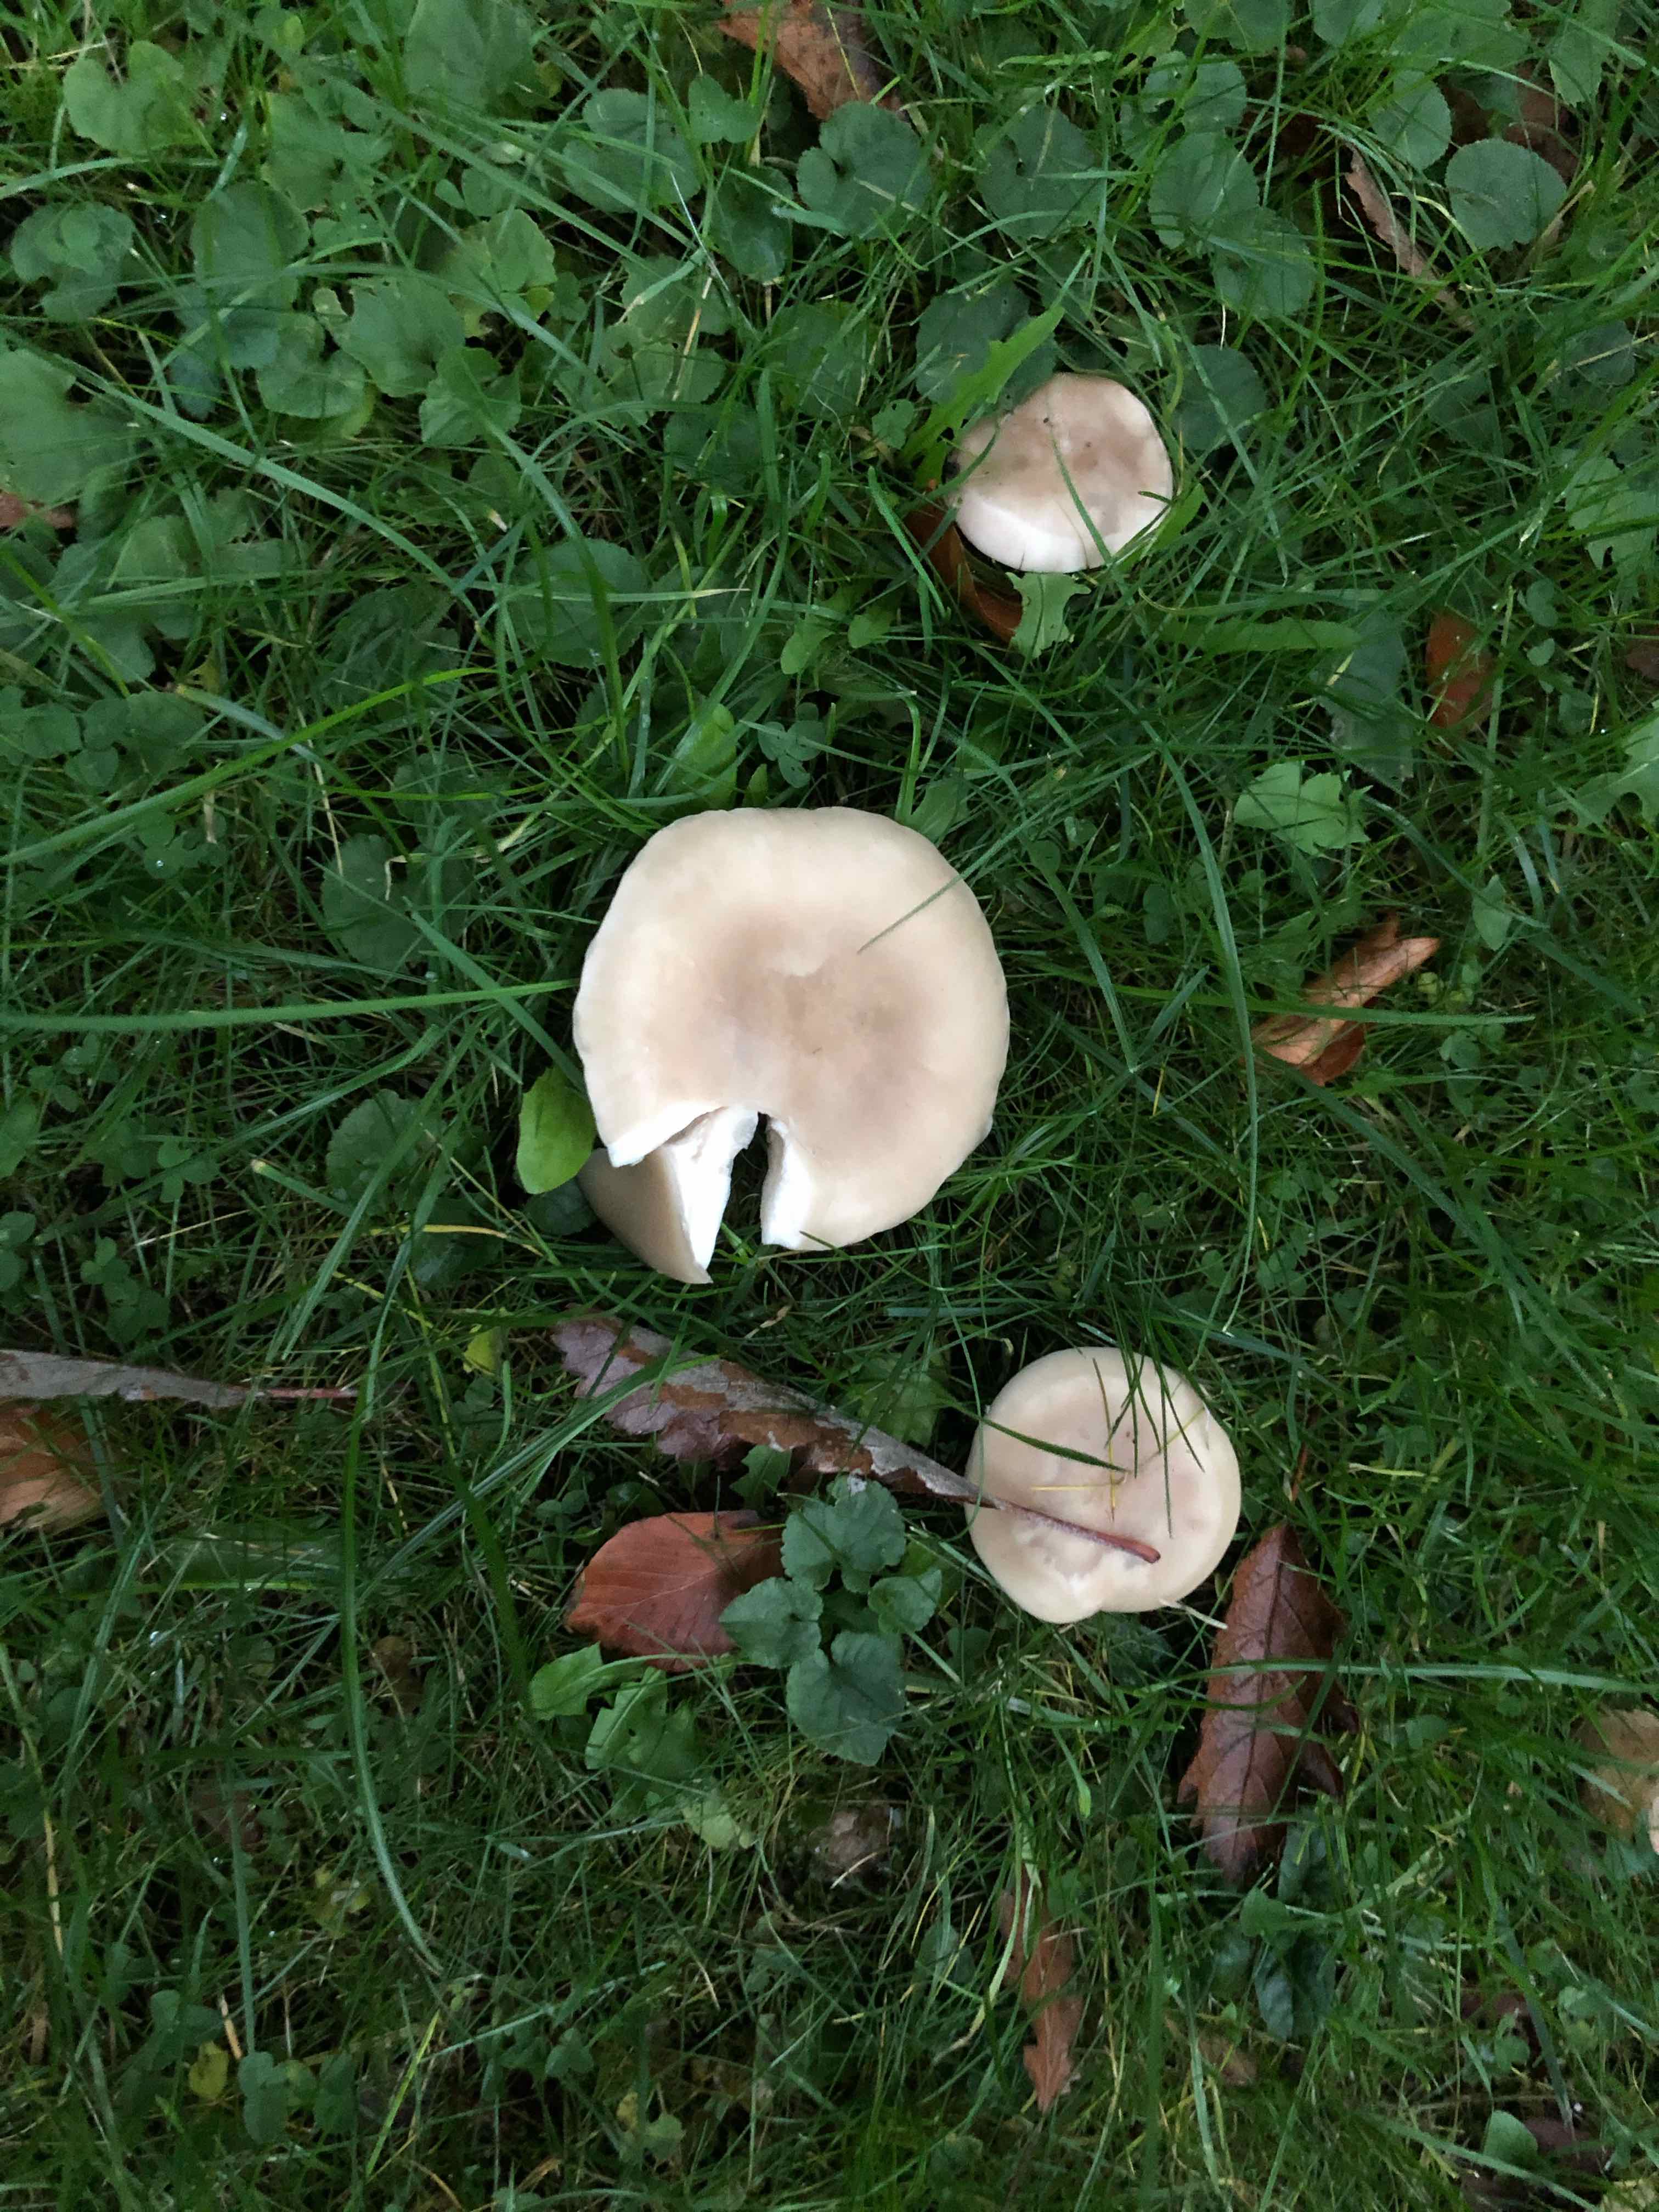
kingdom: Fungi
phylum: Basidiomycota
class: Agaricomycetes
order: Agaricales
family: Tricholomataceae
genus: Lepista
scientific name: Lepista personata
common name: bleg hekseringshat
